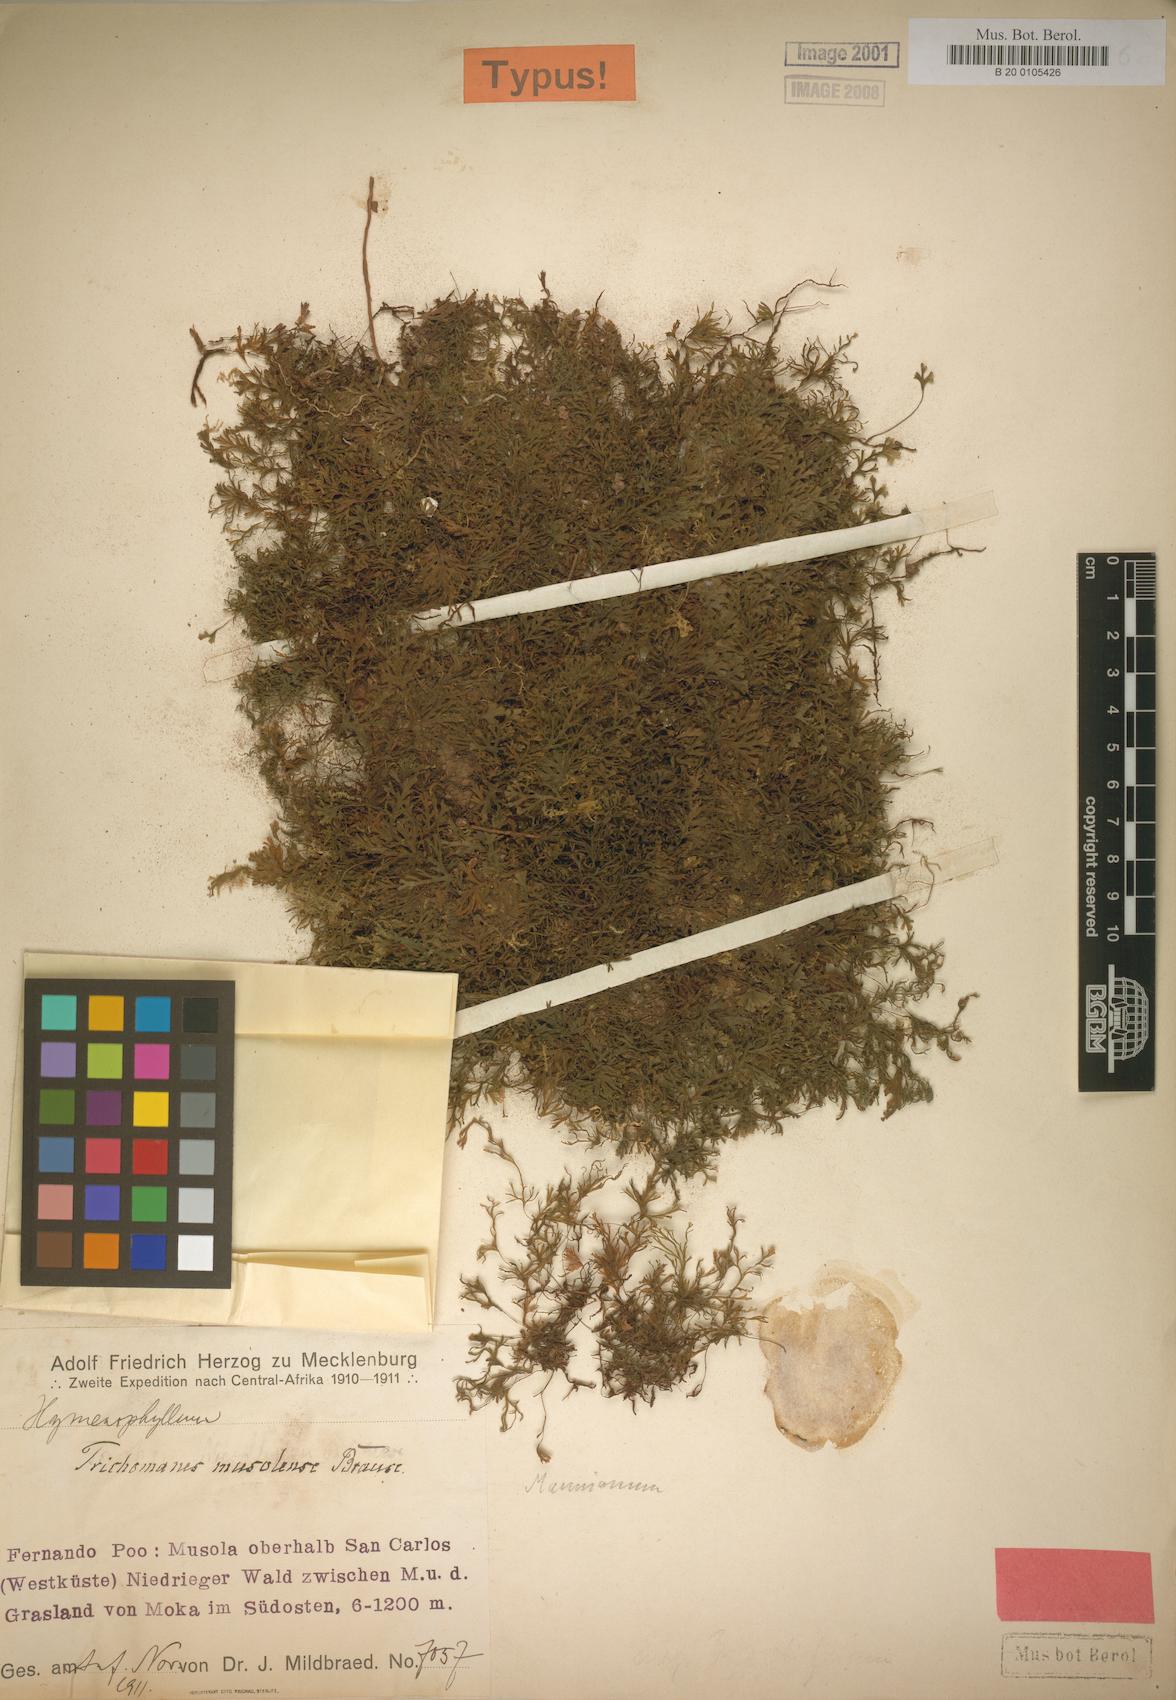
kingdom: Plantae
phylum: Tracheophyta
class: Polypodiopsida
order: Hymenophyllales
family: Hymenophyllaceae
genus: Crepidomanes
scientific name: Crepidomanes parvulum
